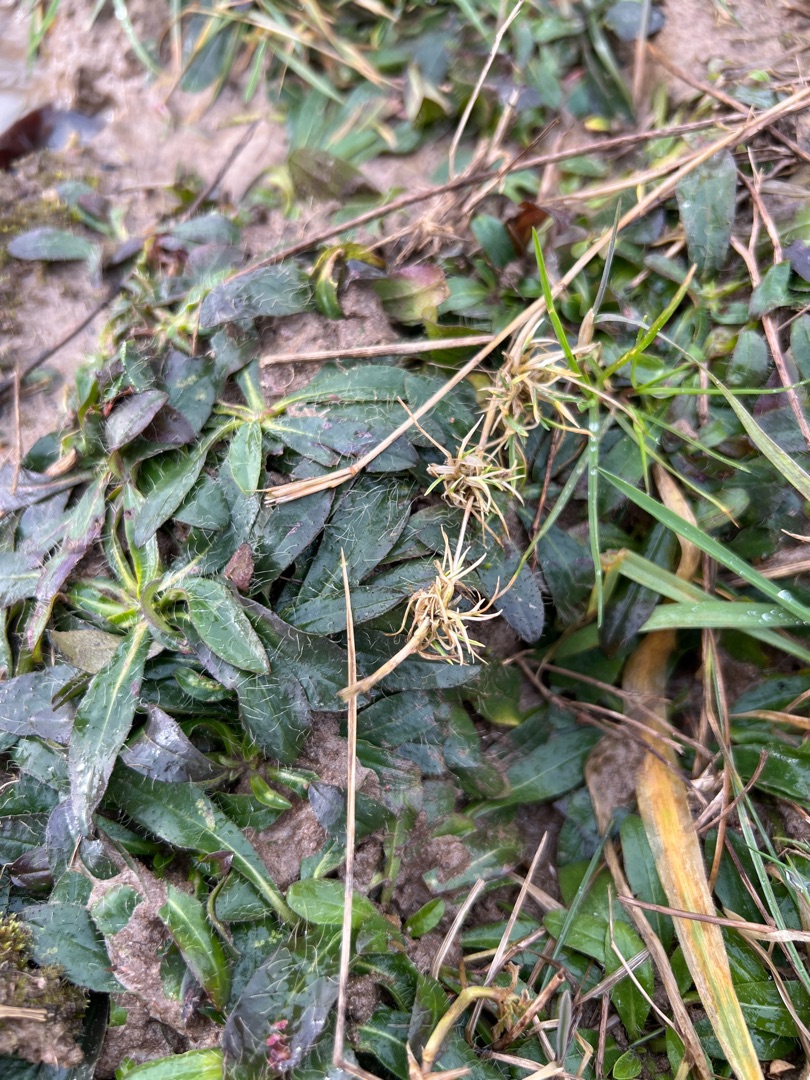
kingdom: Plantae
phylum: Tracheophyta
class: Magnoliopsida
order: Asterales
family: Asteraceae
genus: Pilosella
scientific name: Pilosella officinarum
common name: Håret høgeurt
